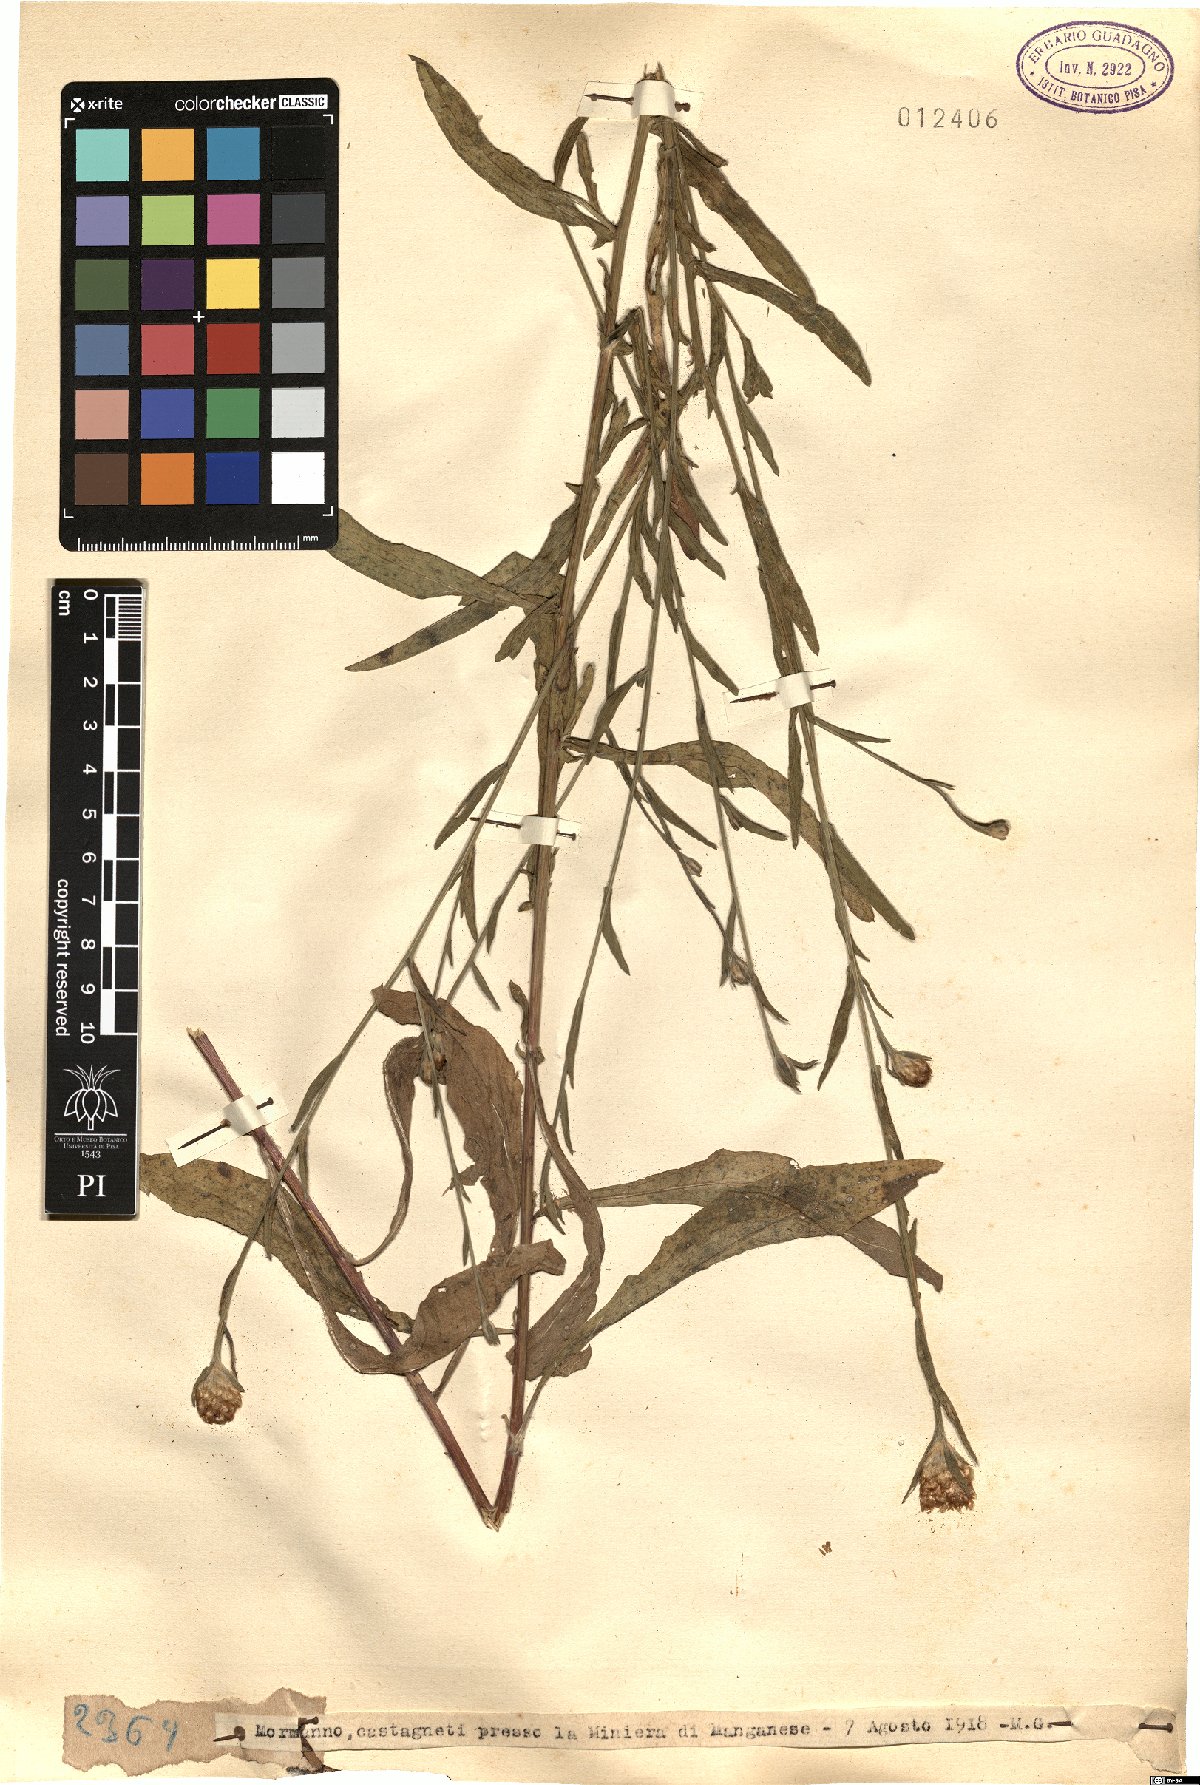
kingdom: Plantae
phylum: Tracheophyta
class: Magnoliopsida
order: Asterales
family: Asteraceae
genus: Centaurea
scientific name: Centaurea
